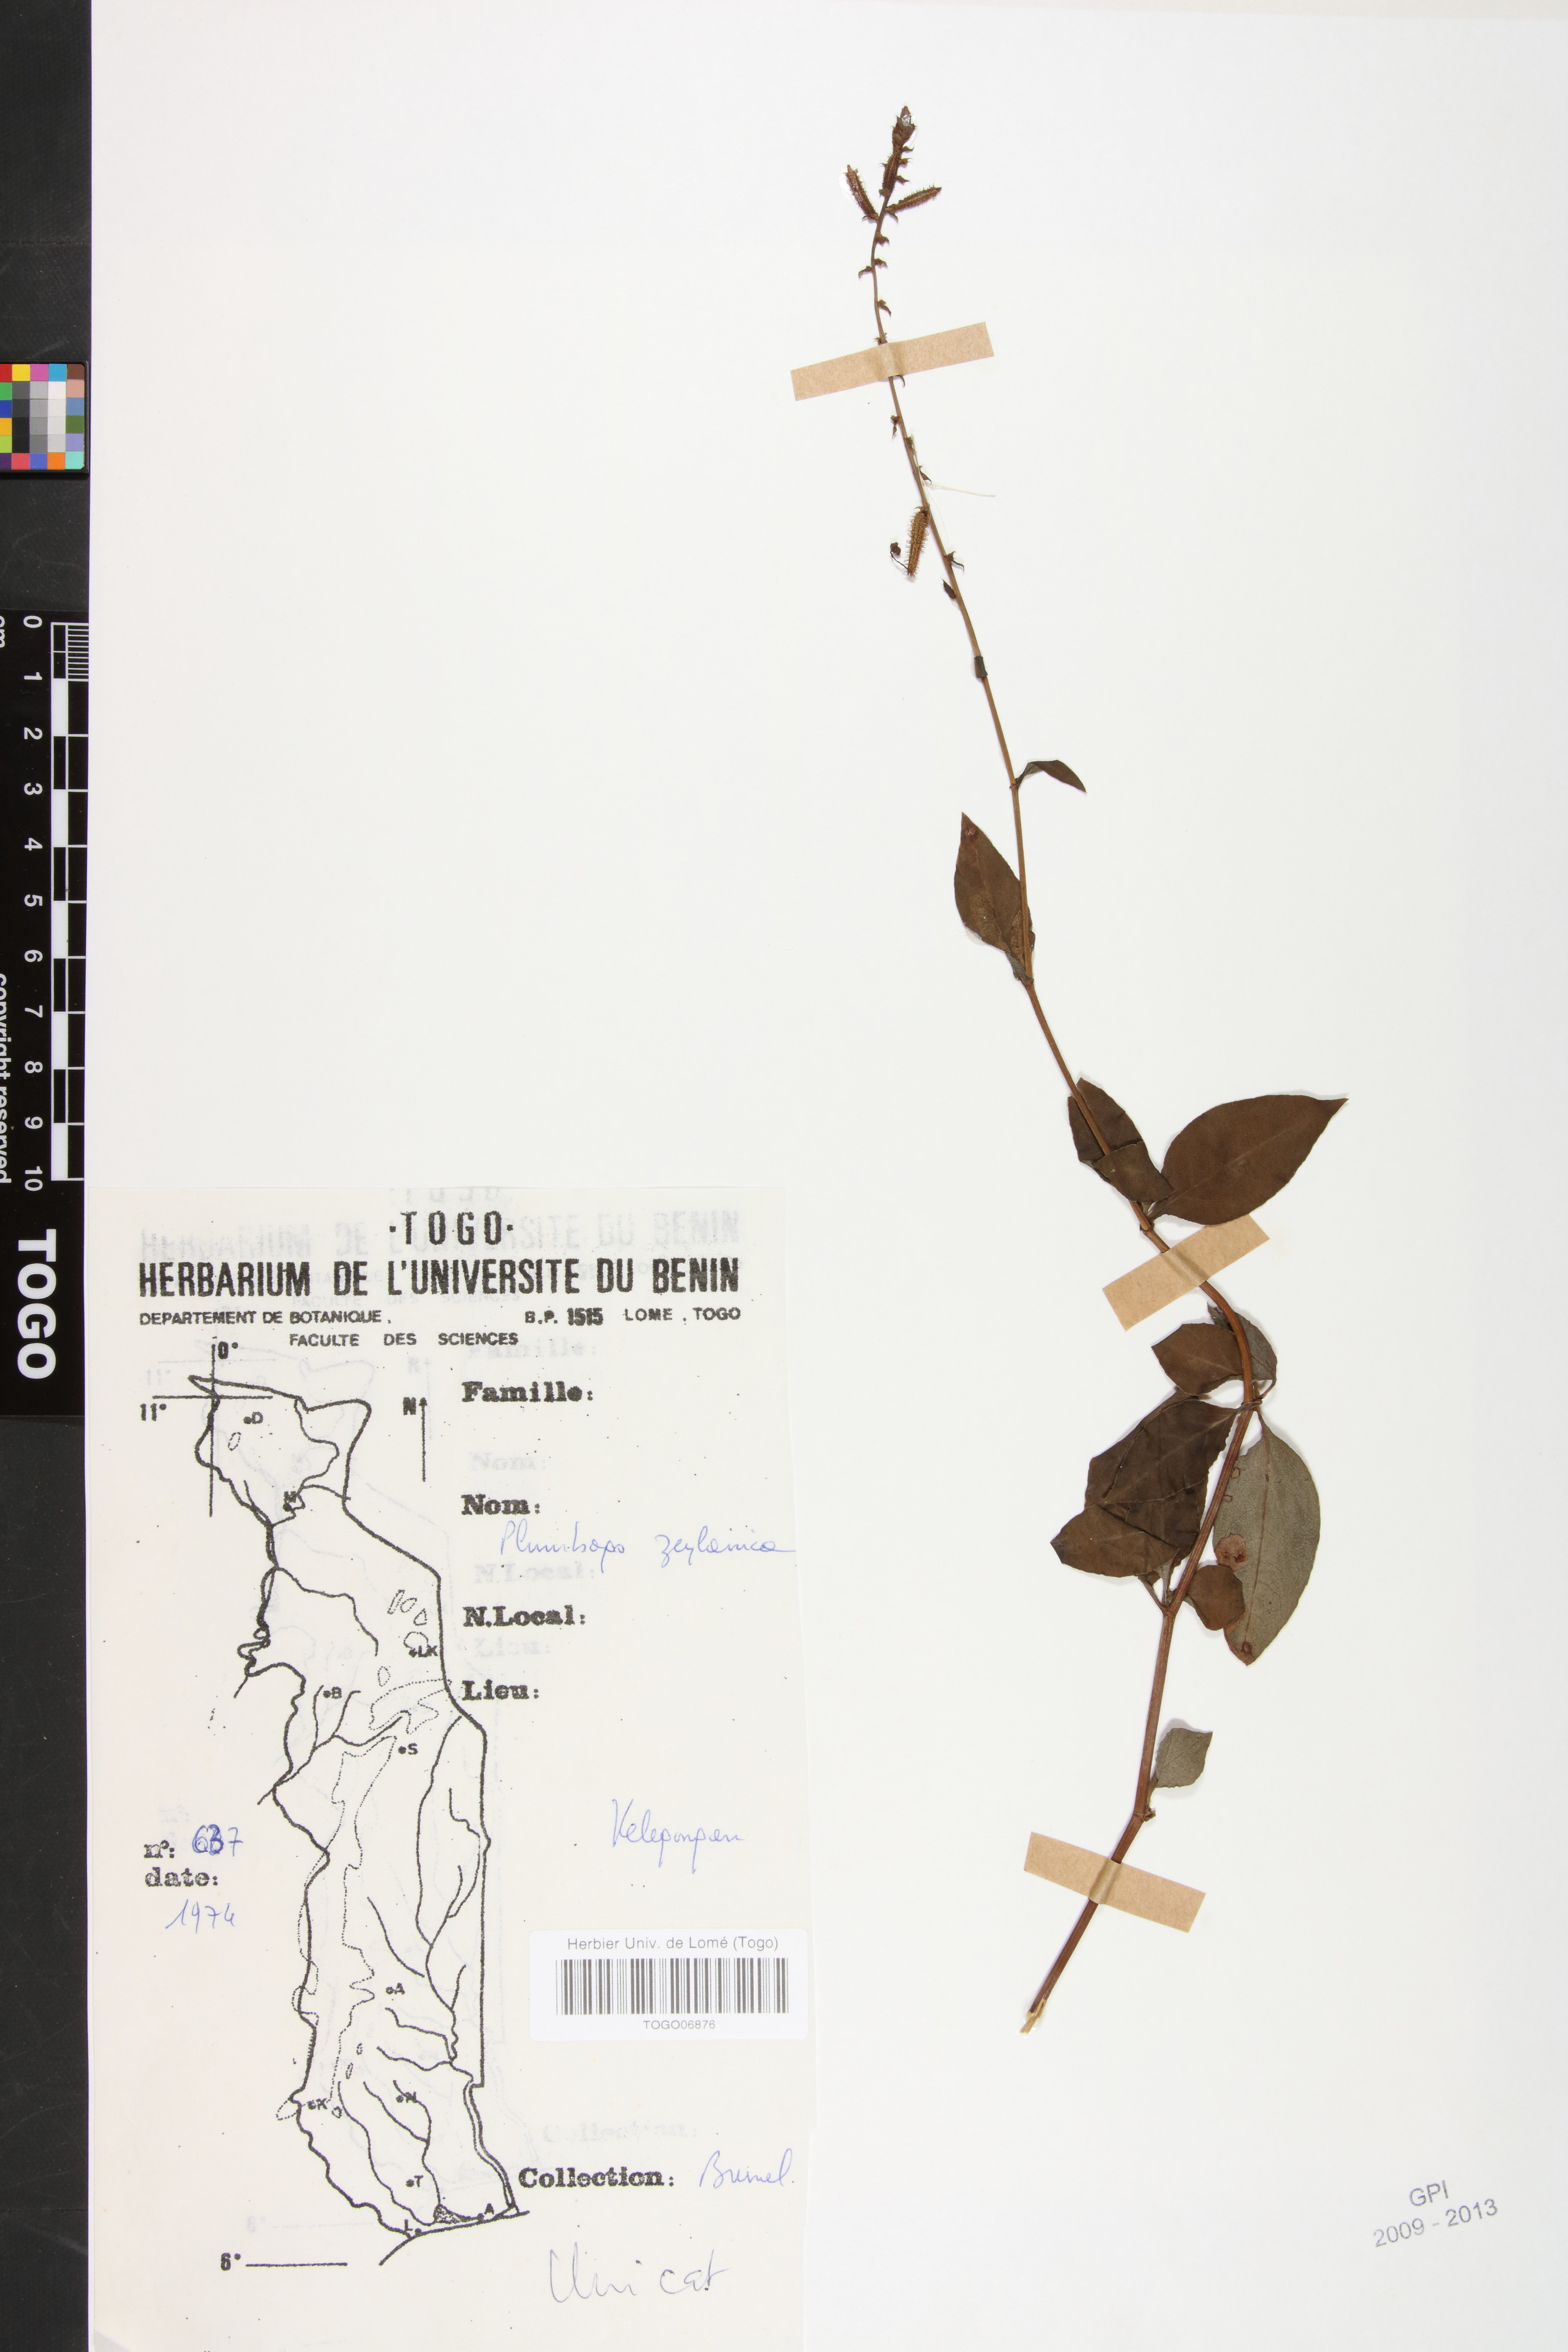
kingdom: Plantae
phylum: Tracheophyta
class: Magnoliopsida
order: Caryophyllales
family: Plumbaginaceae
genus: Plumbago
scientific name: Plumbago zeylanica
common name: Doctorbush
